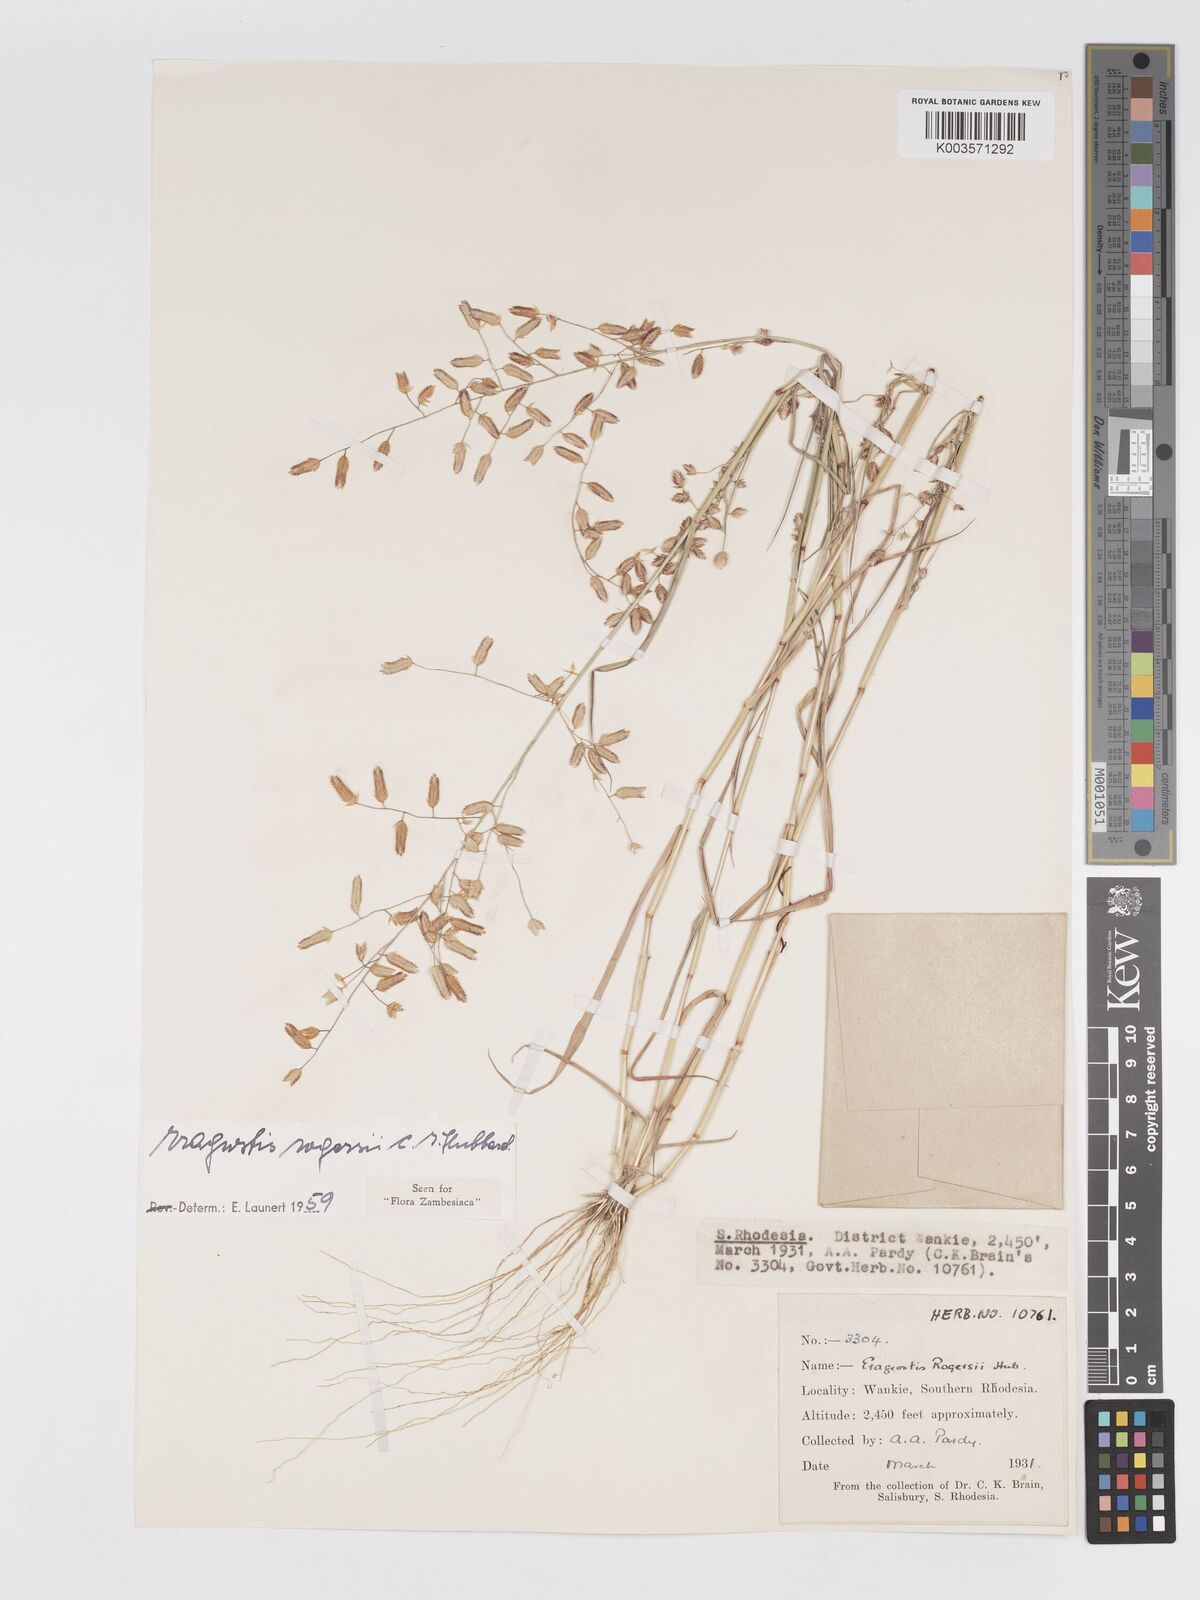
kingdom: Plantae
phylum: Tracheophyta
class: Liliopsida
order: Poales
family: Poaceae
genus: Eragrostis
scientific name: Eragrostis rogersii
